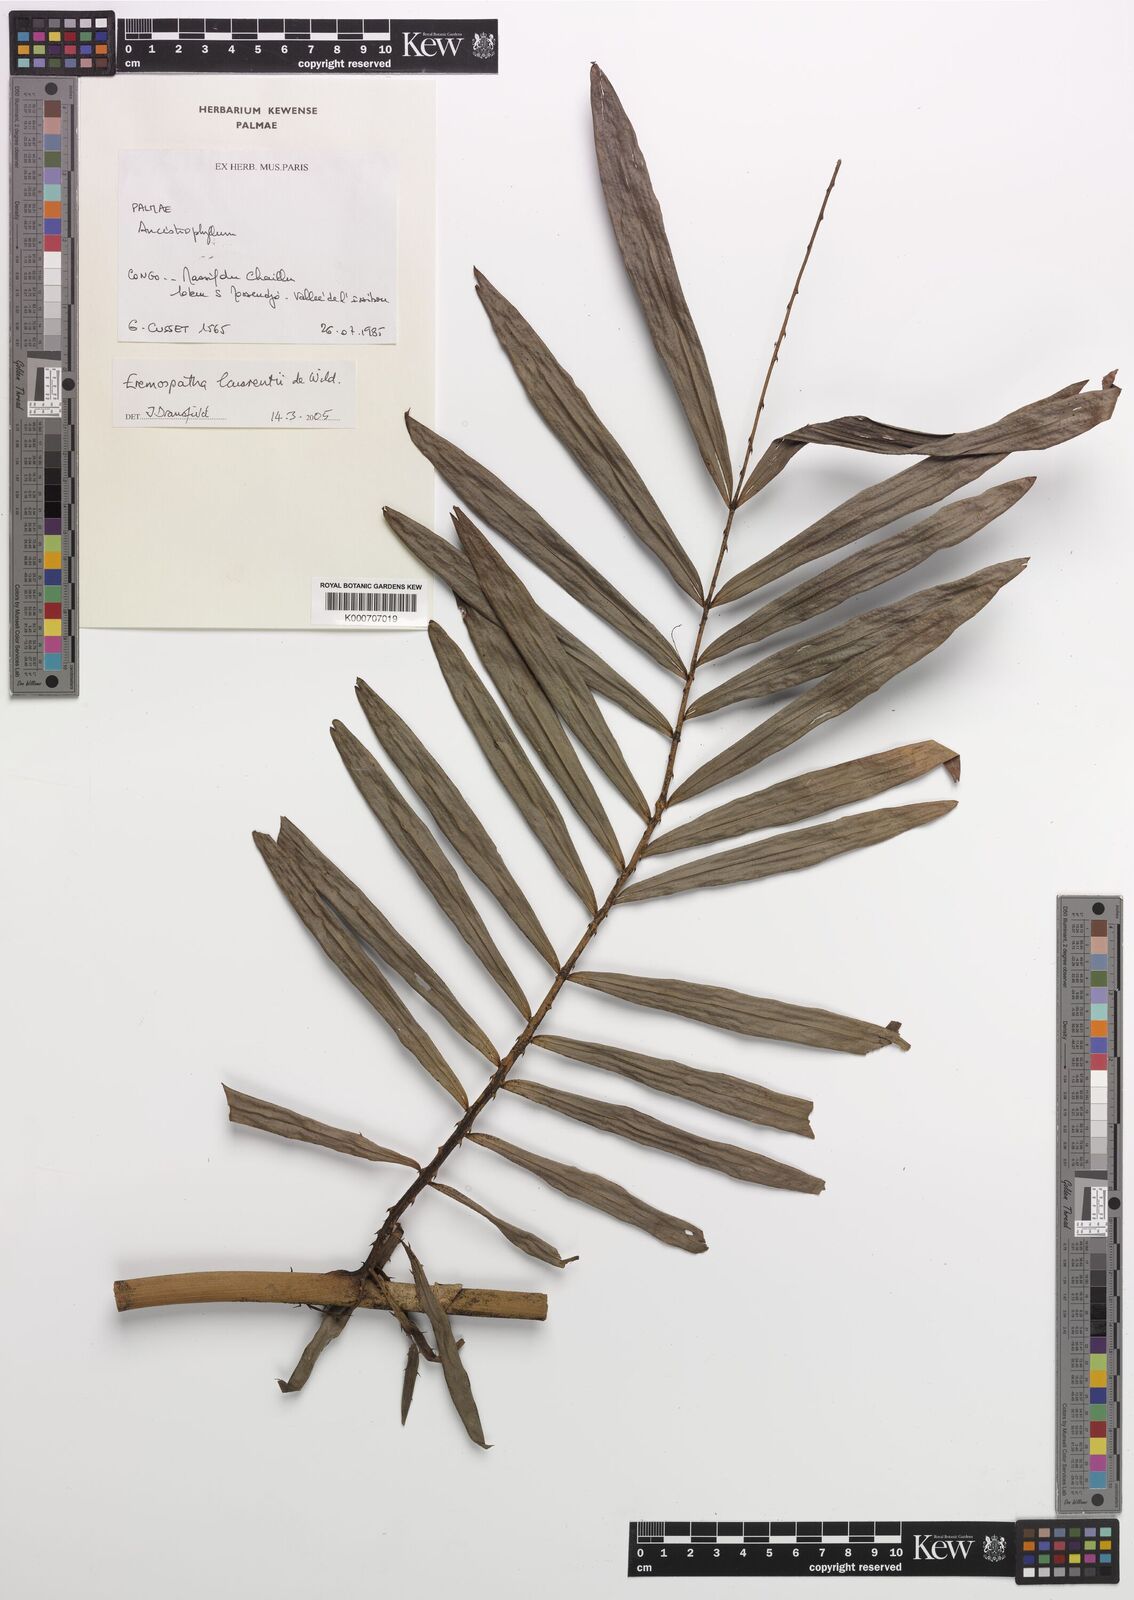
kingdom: Plantae
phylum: Tracheophyta
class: Liliopsida
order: Arecales
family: Arecaceae
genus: Eremospatha
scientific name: Eremospatha laurentii
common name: Rattan palm
